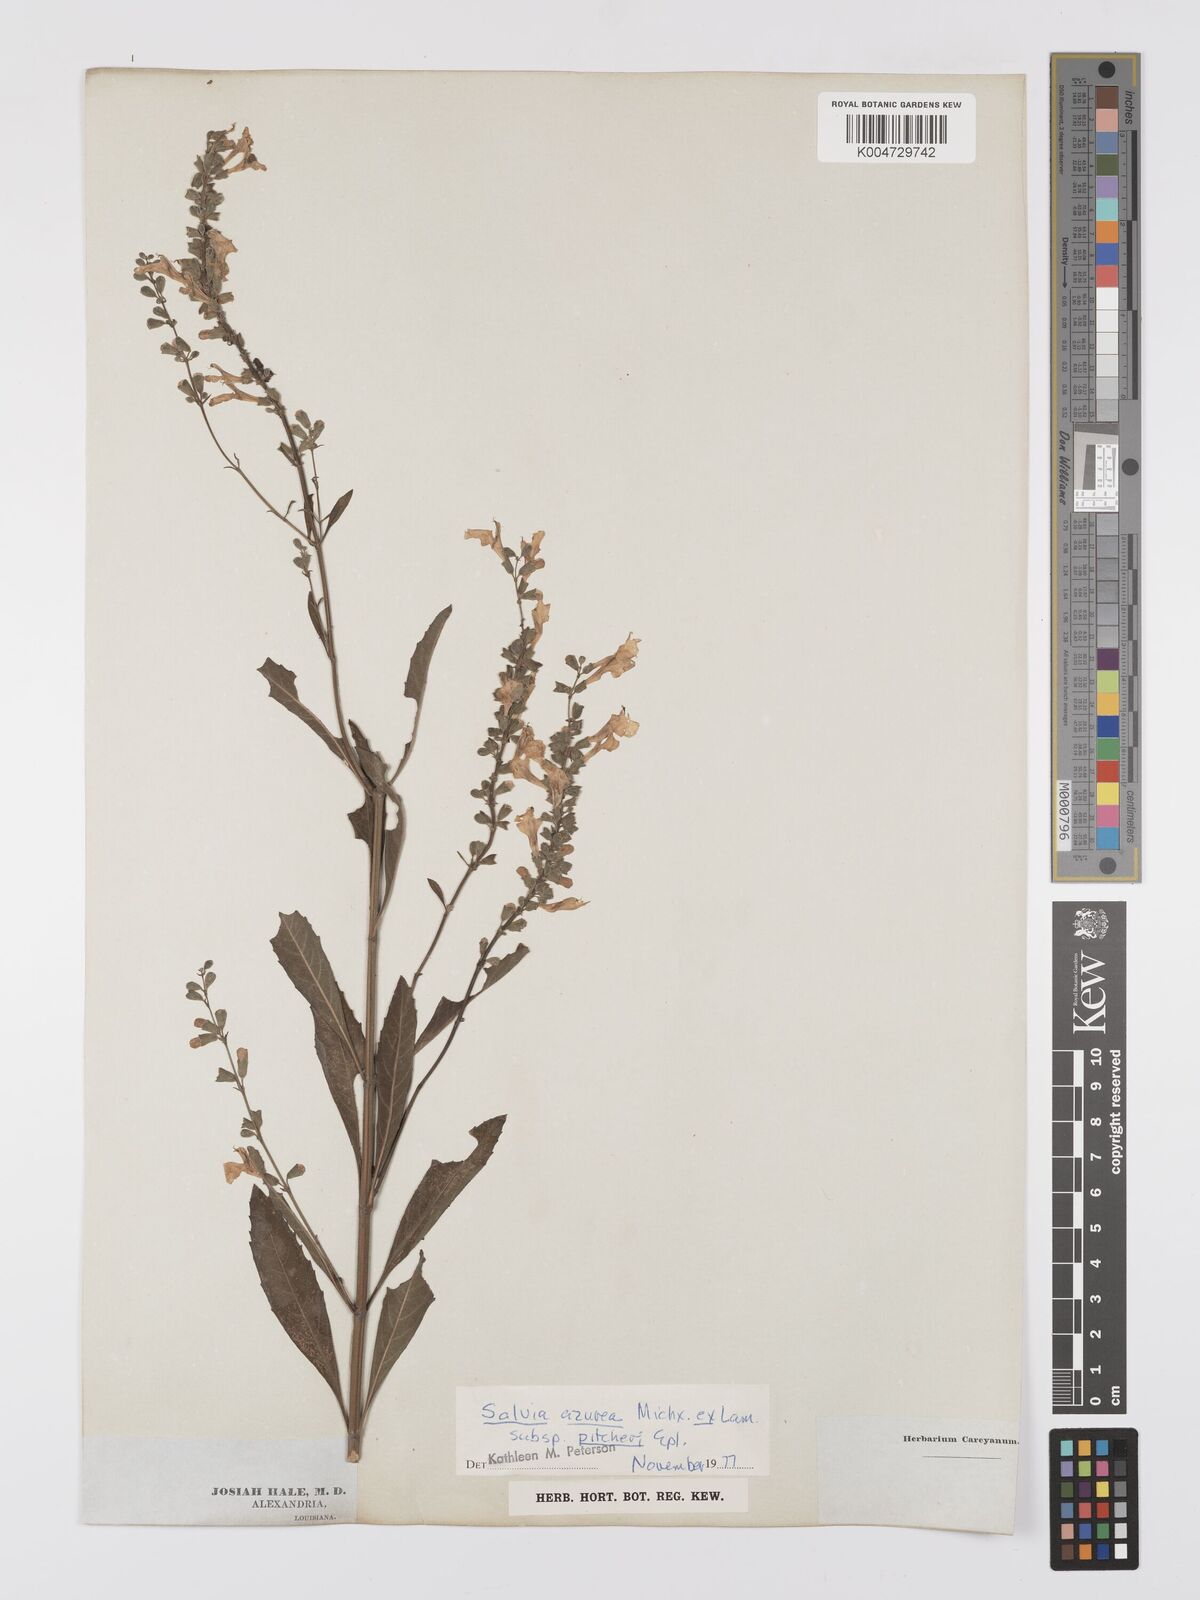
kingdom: Plantae
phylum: Tracheophyta
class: Magnoliopsida
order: Lamiales
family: Lamiaceae
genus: Salvia
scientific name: Salvia azurea
